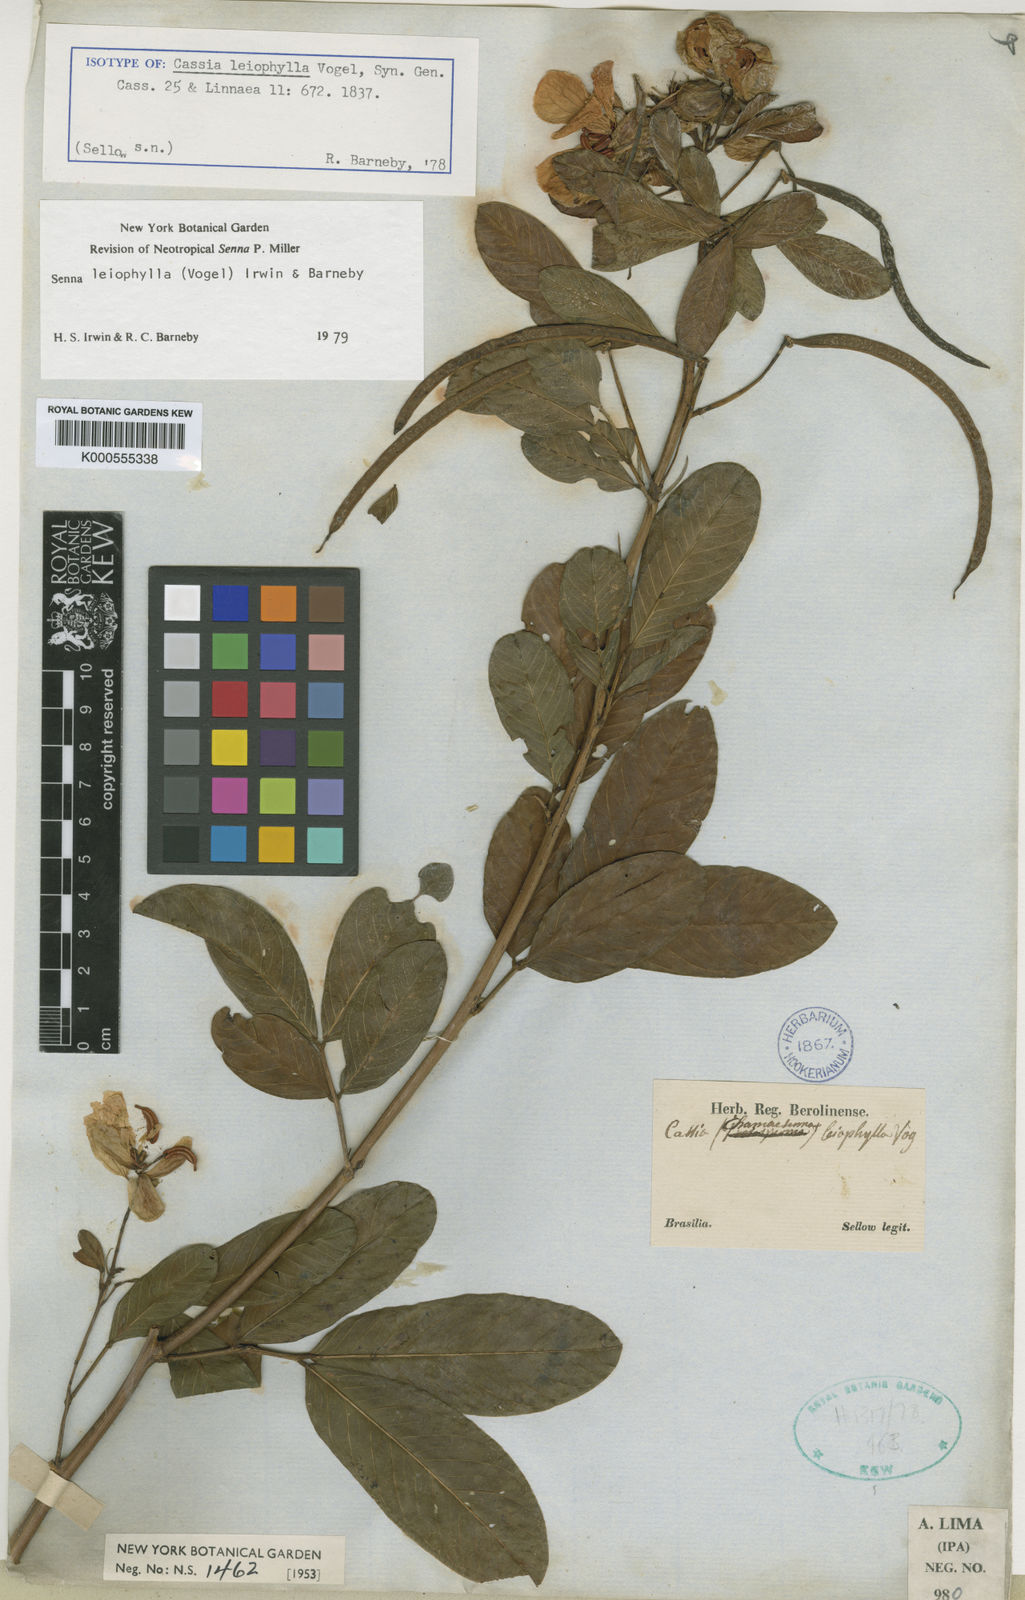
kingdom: Plantae
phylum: Tracheophyta
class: Magnoliopsida
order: Fabales
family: Fabaceae
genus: Senna
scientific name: Senna leiophylla
